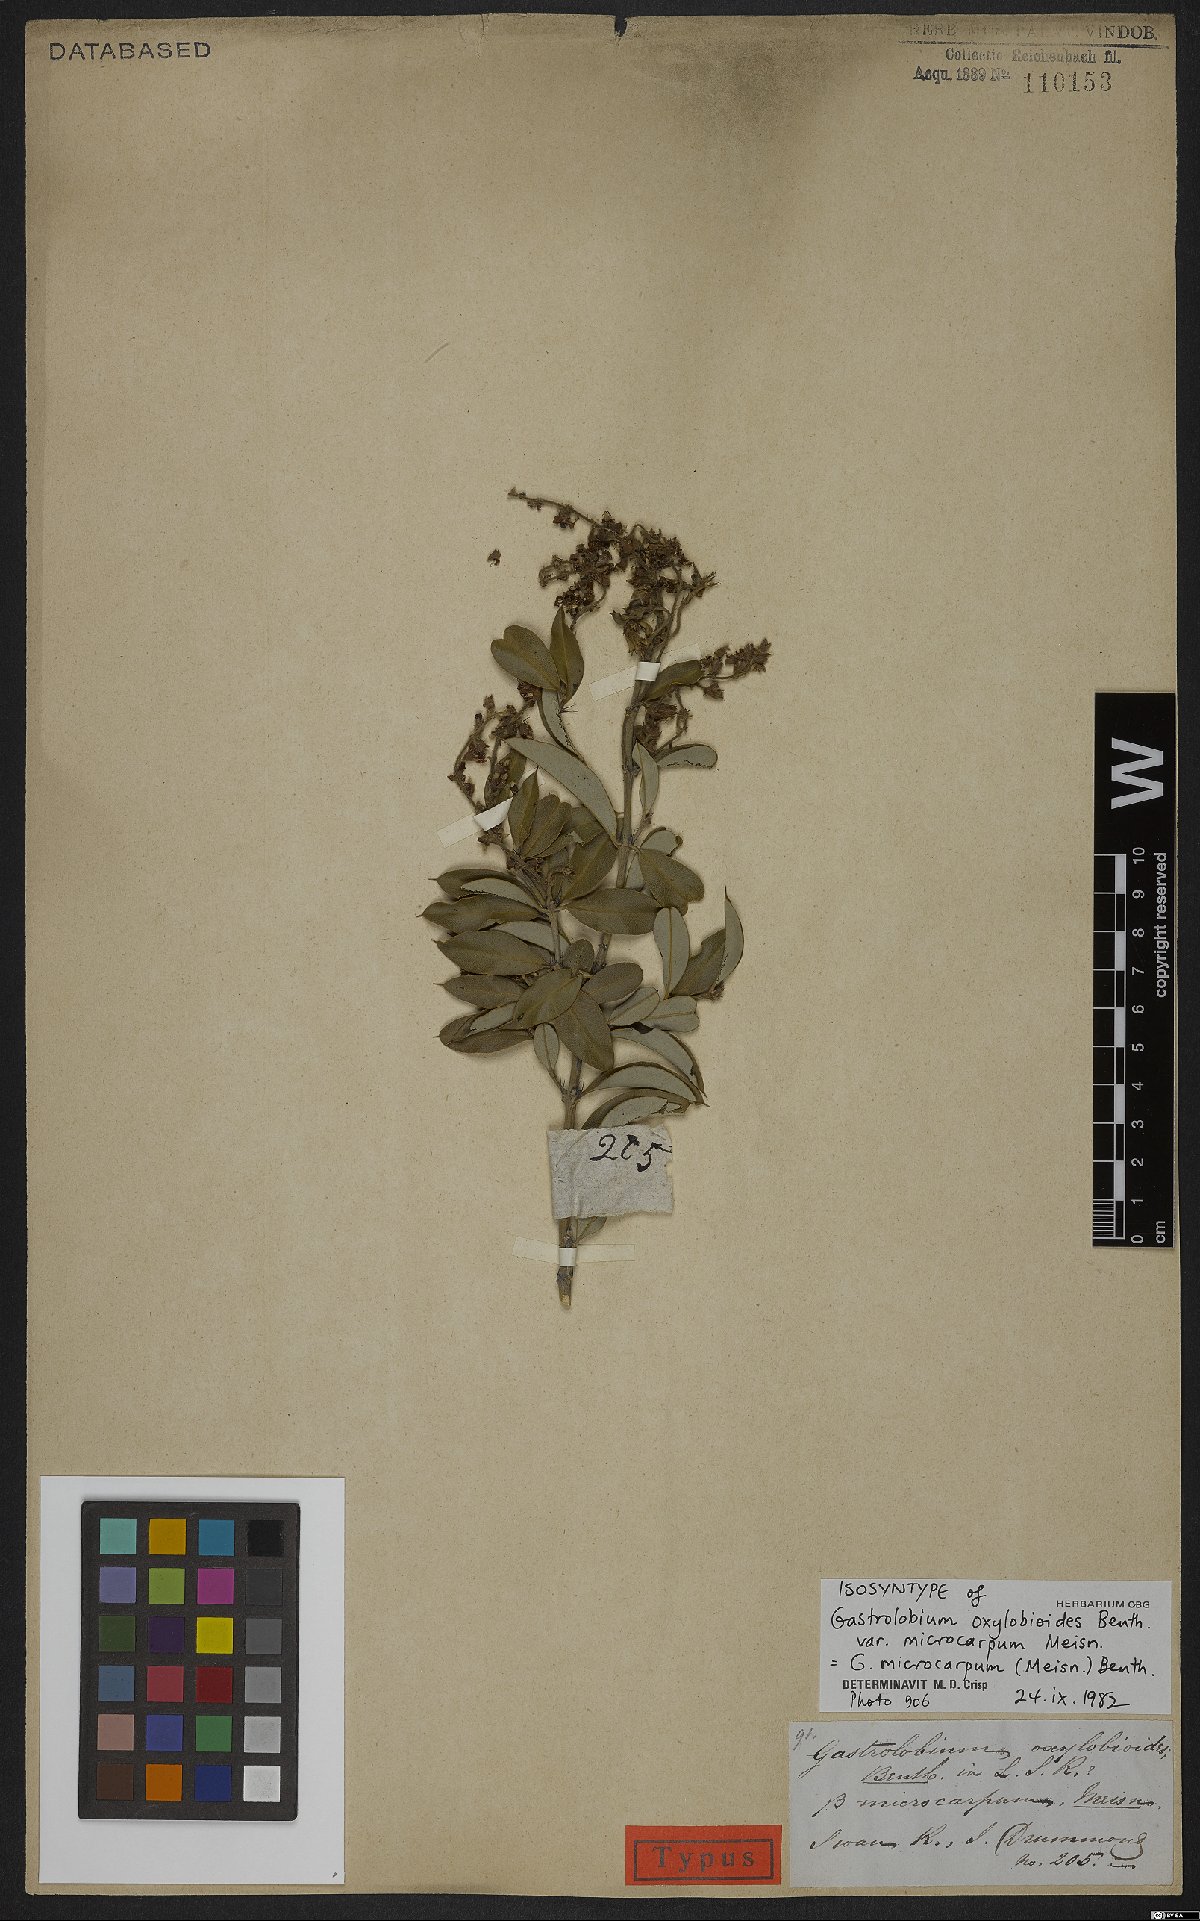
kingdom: Plantae
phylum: Tracheophyta
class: Magnoliopsida
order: Fabales
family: Fabaceae
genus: Gastrolobium
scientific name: Gastrolobium microcarpum
